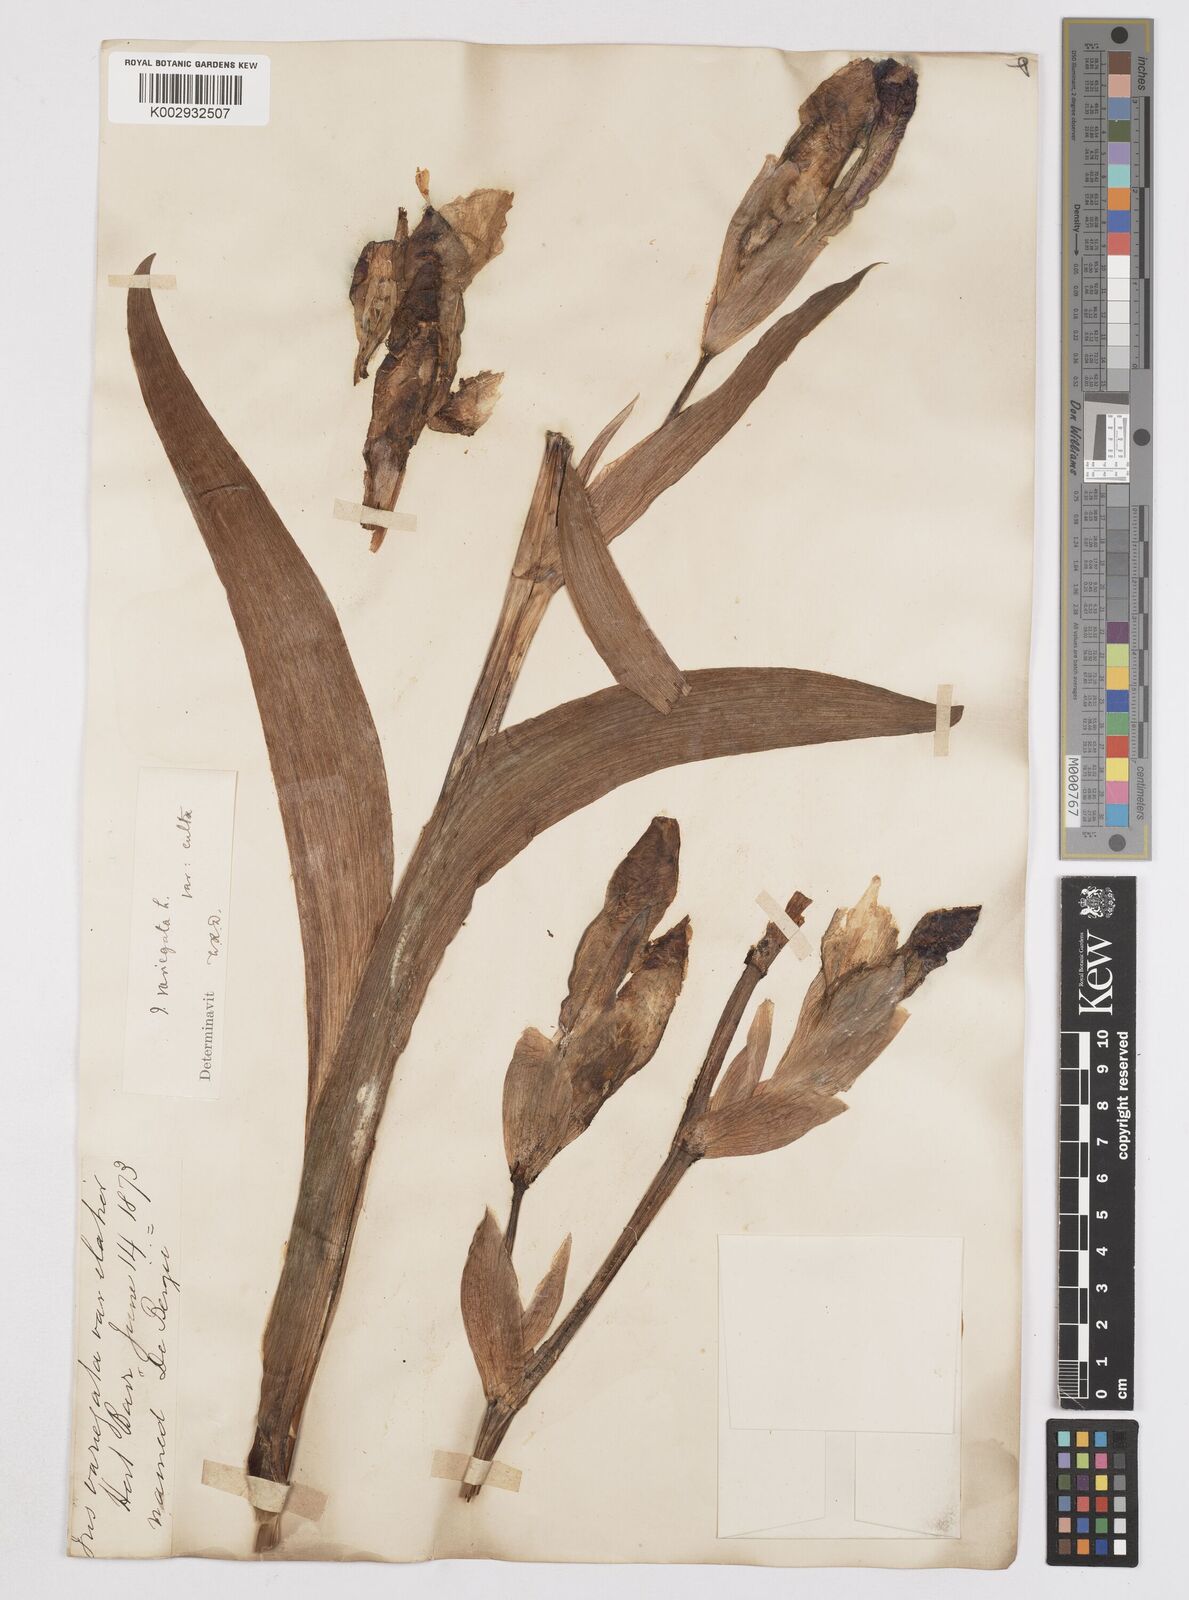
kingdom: Plantae
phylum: Tracheophyta
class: Liliopsida
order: Asparagales
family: Iridaceae
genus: Iris
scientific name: Iris variegata
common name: Hungarian iris
